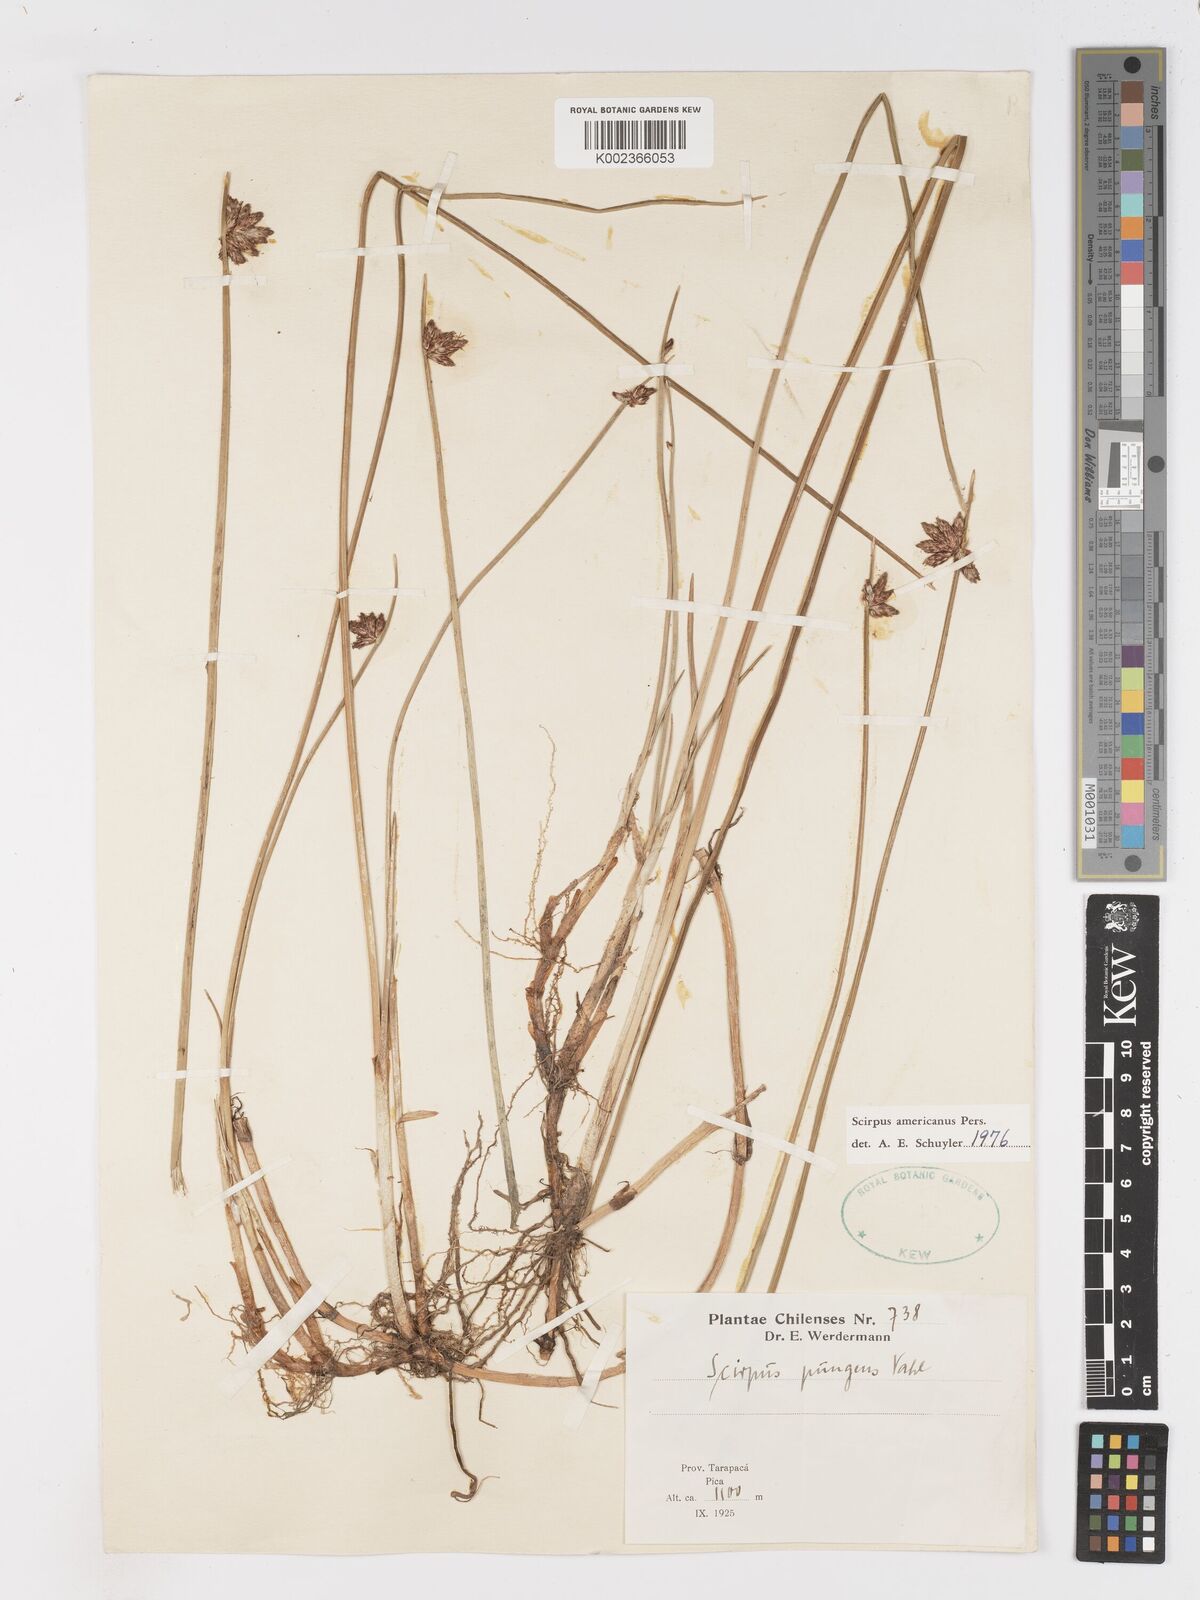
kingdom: Plantae
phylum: Tracheophyta
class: Liliopsida
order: Poales
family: Cyperaceae
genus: Schoenoplectus
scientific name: Schoenoplectus americanus
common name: American three-square bulrush
